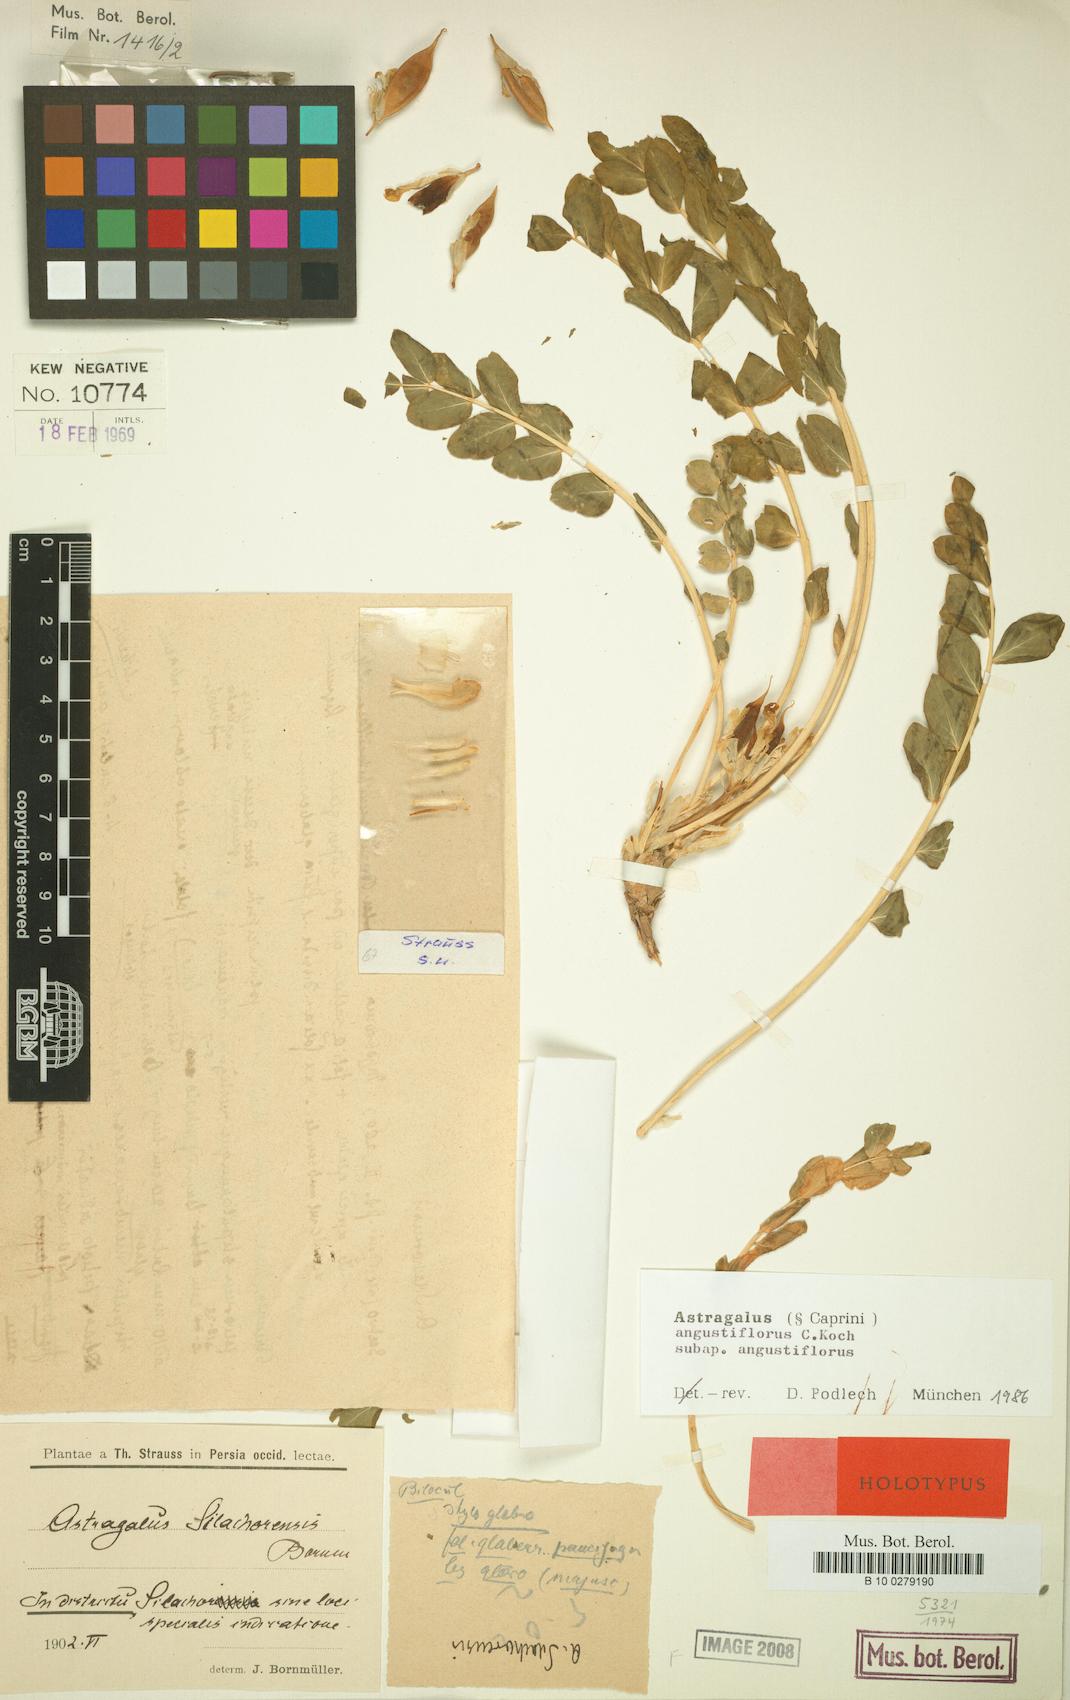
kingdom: Plantae
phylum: Tracheophyta
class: Magnoliopsida
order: Fabales
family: Fabaceae
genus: Astragalus
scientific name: Astragalus angustiflorus
